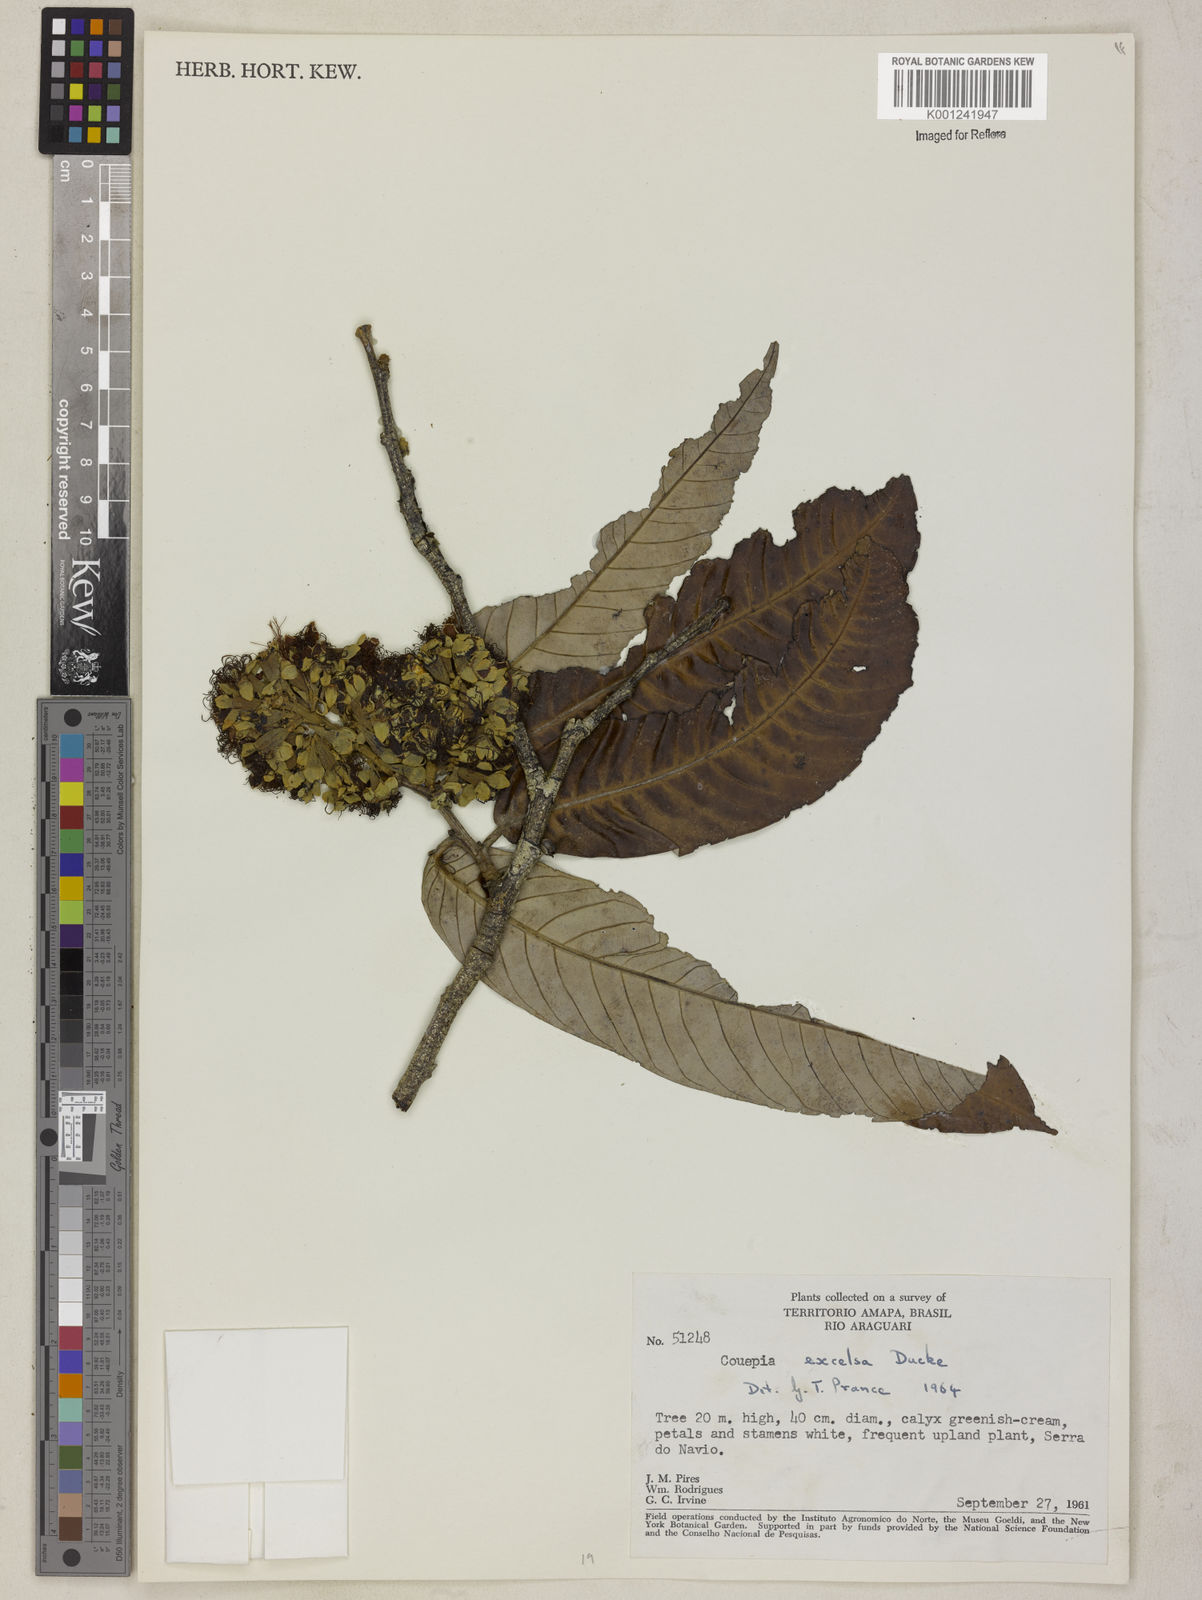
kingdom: Plantae
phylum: Tracheophyta
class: Magnoliopsida
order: Malpighiales
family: Chrysobalanaceae
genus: Couepia
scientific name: Couepia excelsa
